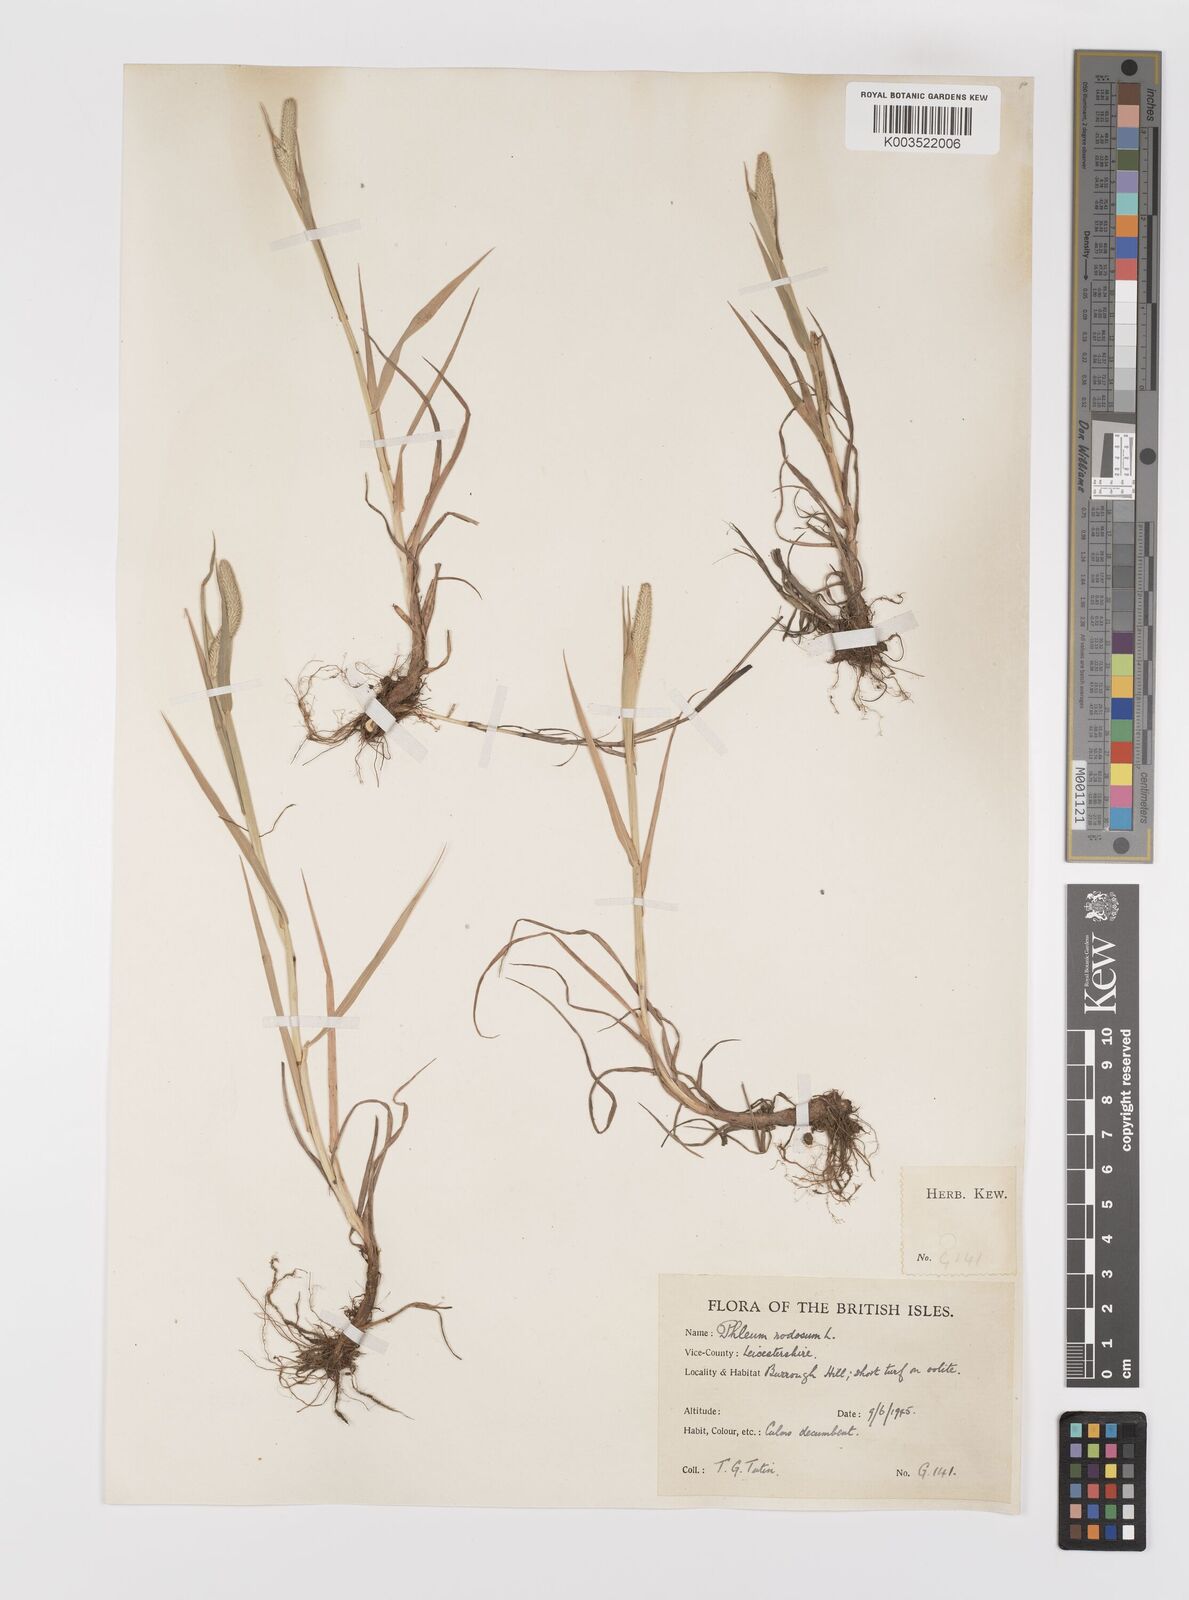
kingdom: Plantae
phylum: Tracheophyta
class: Liliopsida
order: Poales
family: Poaceae
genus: Phleum
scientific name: Phleum bertolonii
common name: Smaller cat's-tail
